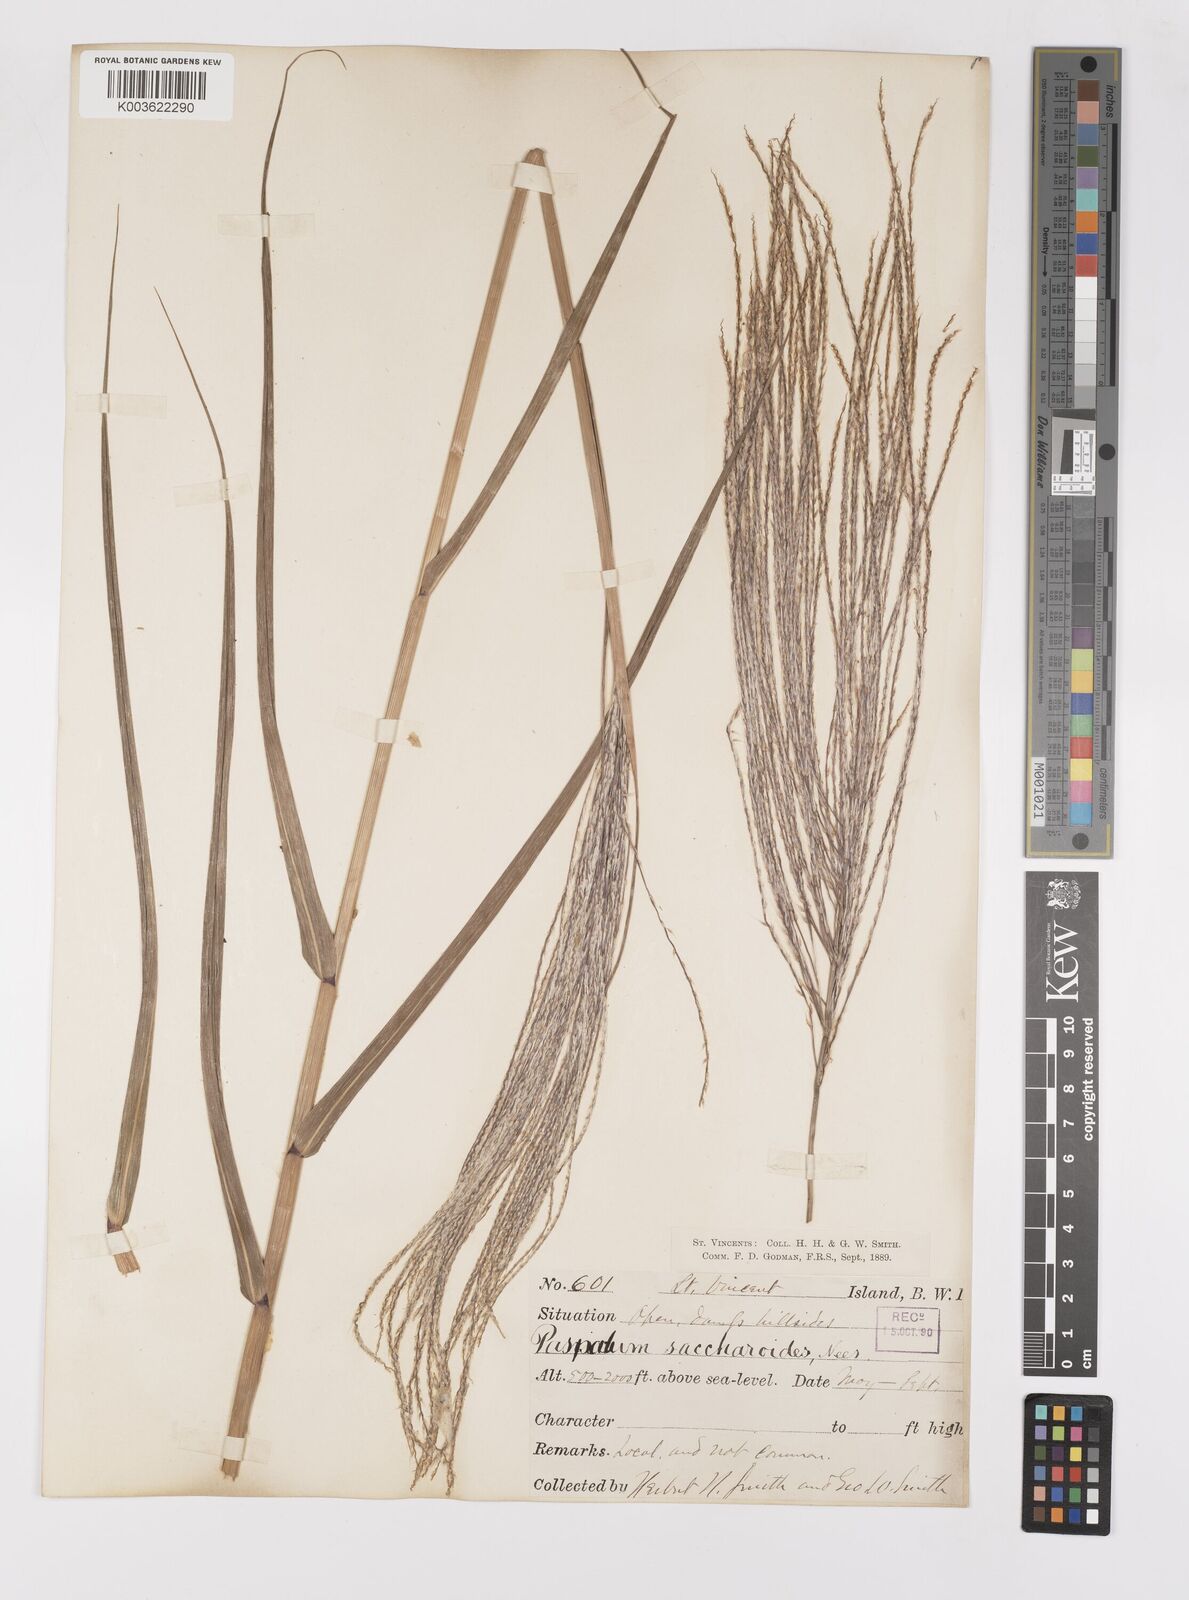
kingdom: Plantae
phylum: Tracheophyta
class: Liliopsida
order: Poales
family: Poaceae
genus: Paspalum
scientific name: Paspalum saccharoides
